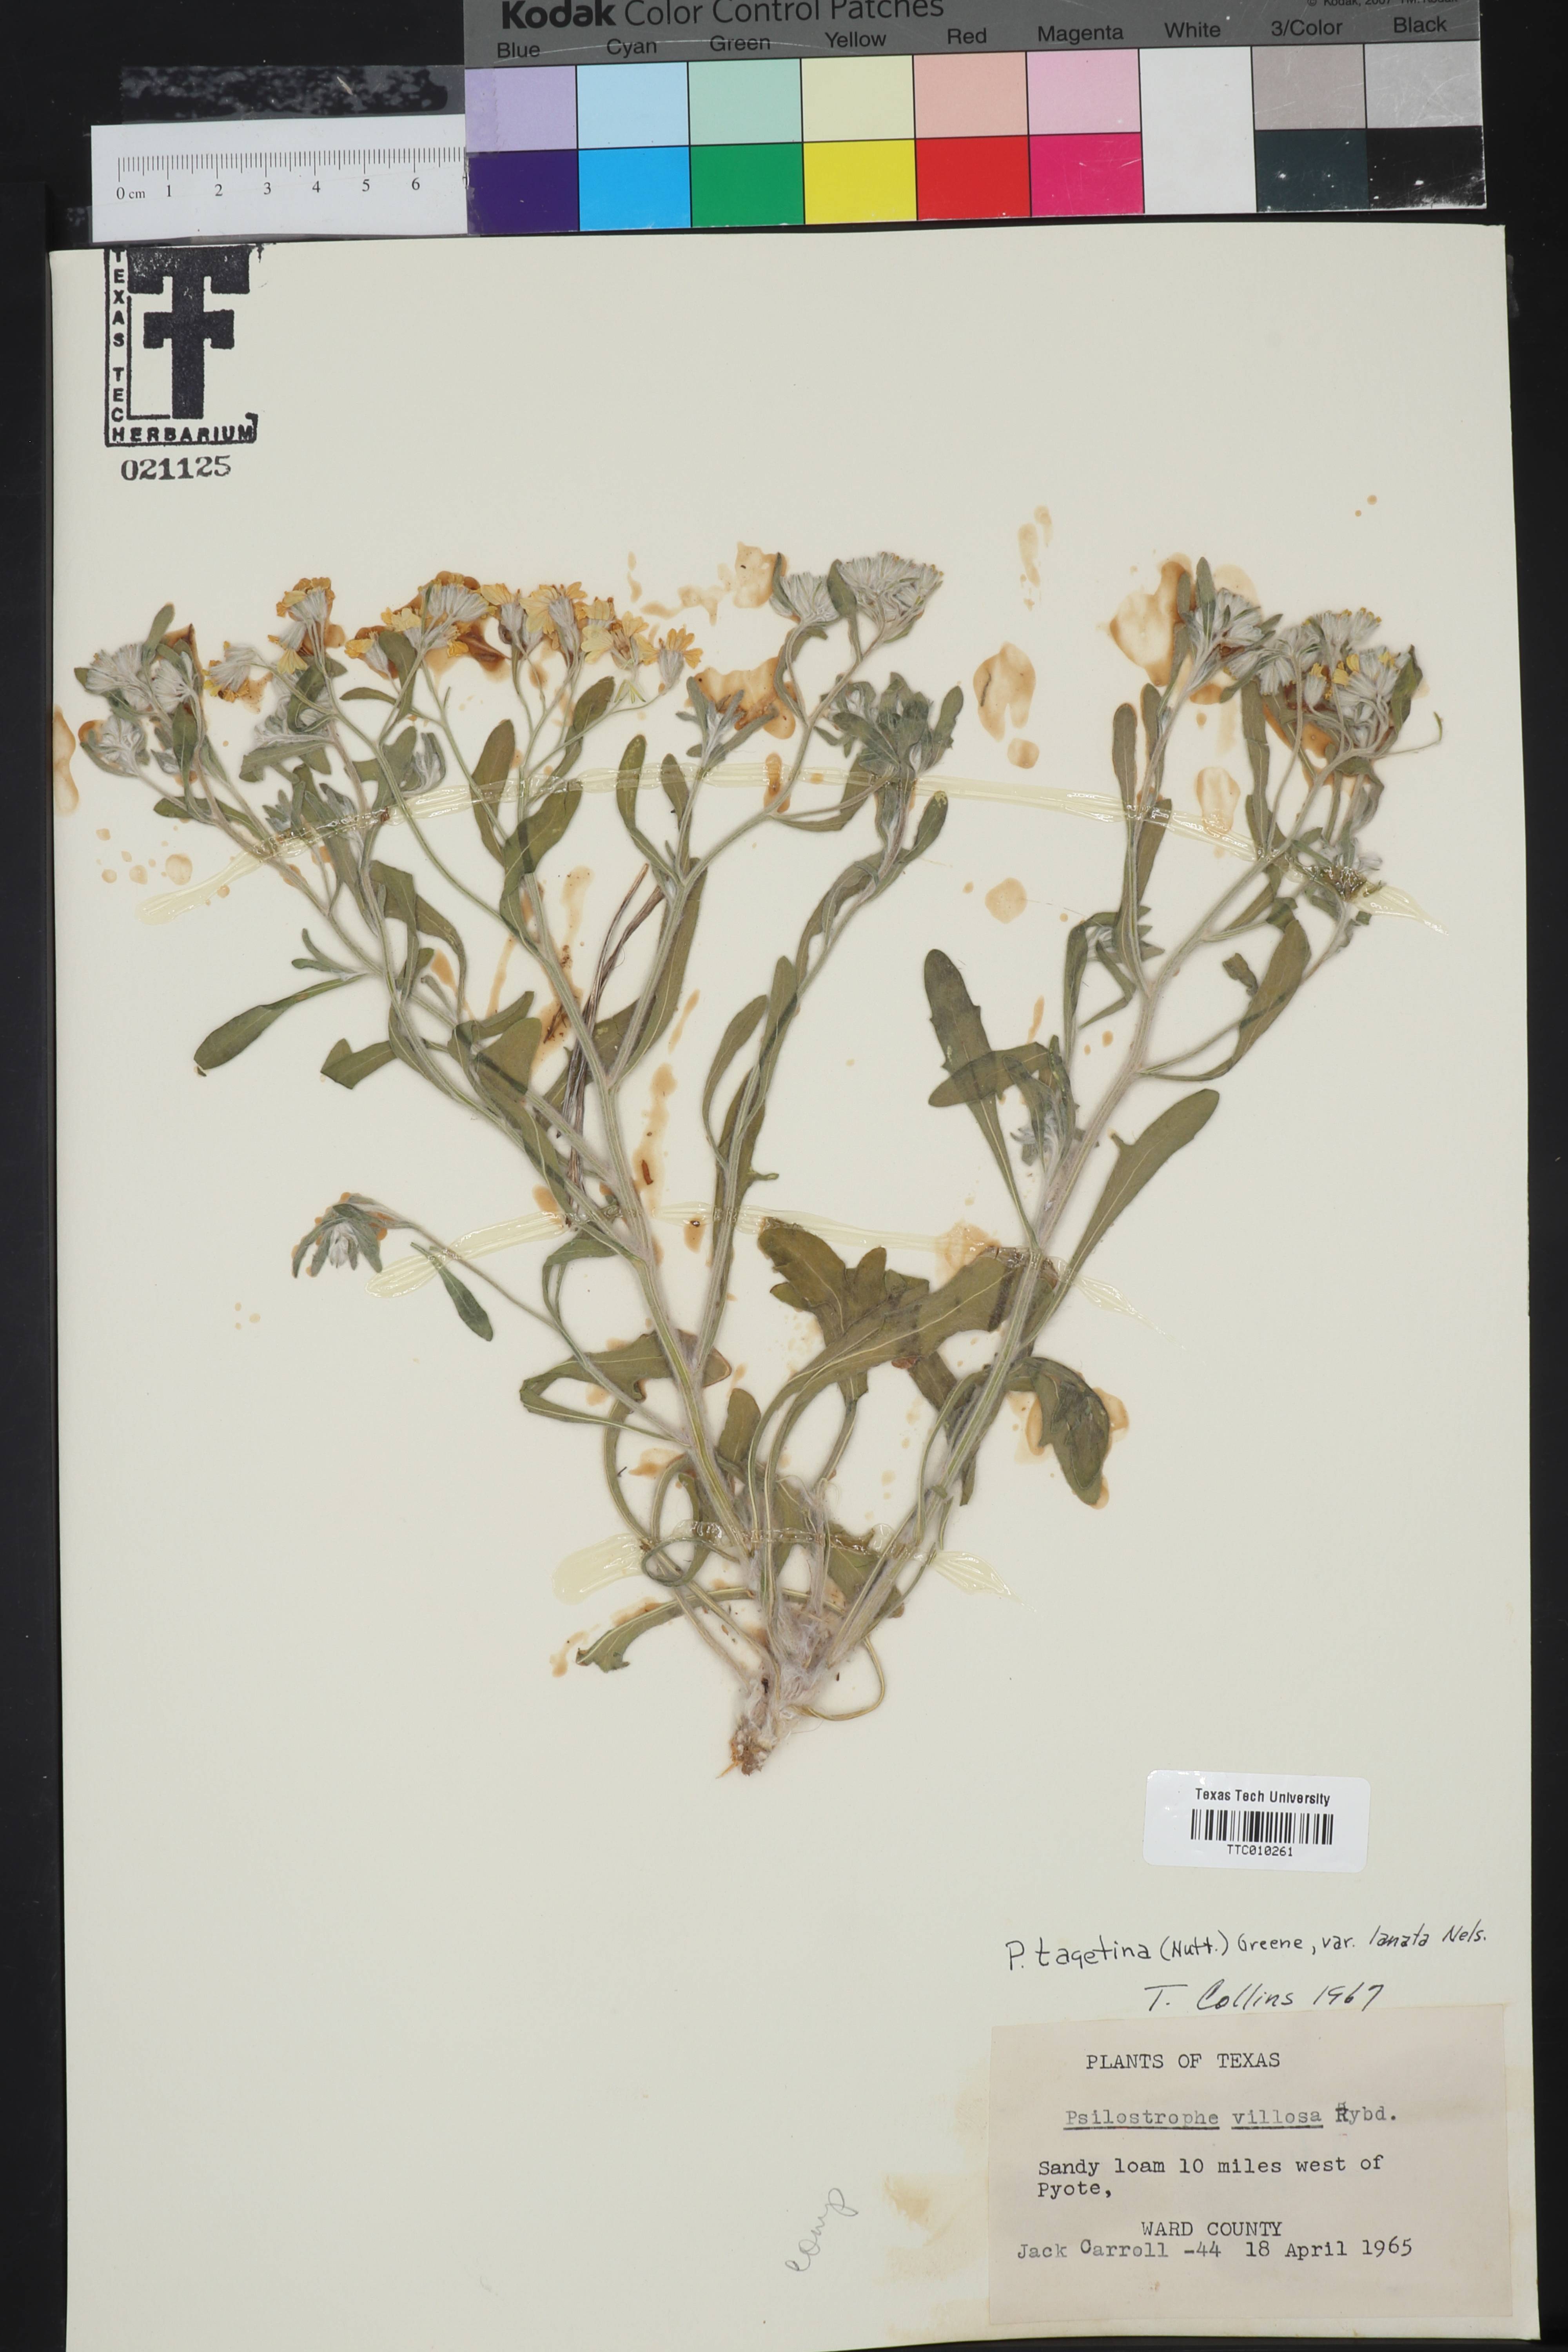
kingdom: Plantae
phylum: Tracheophyta
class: Magnoliopsida
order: Asterales
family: Asteraceae
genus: Psilostrophe
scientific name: Psilostrophe tagetina
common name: Marigold paper-flower
